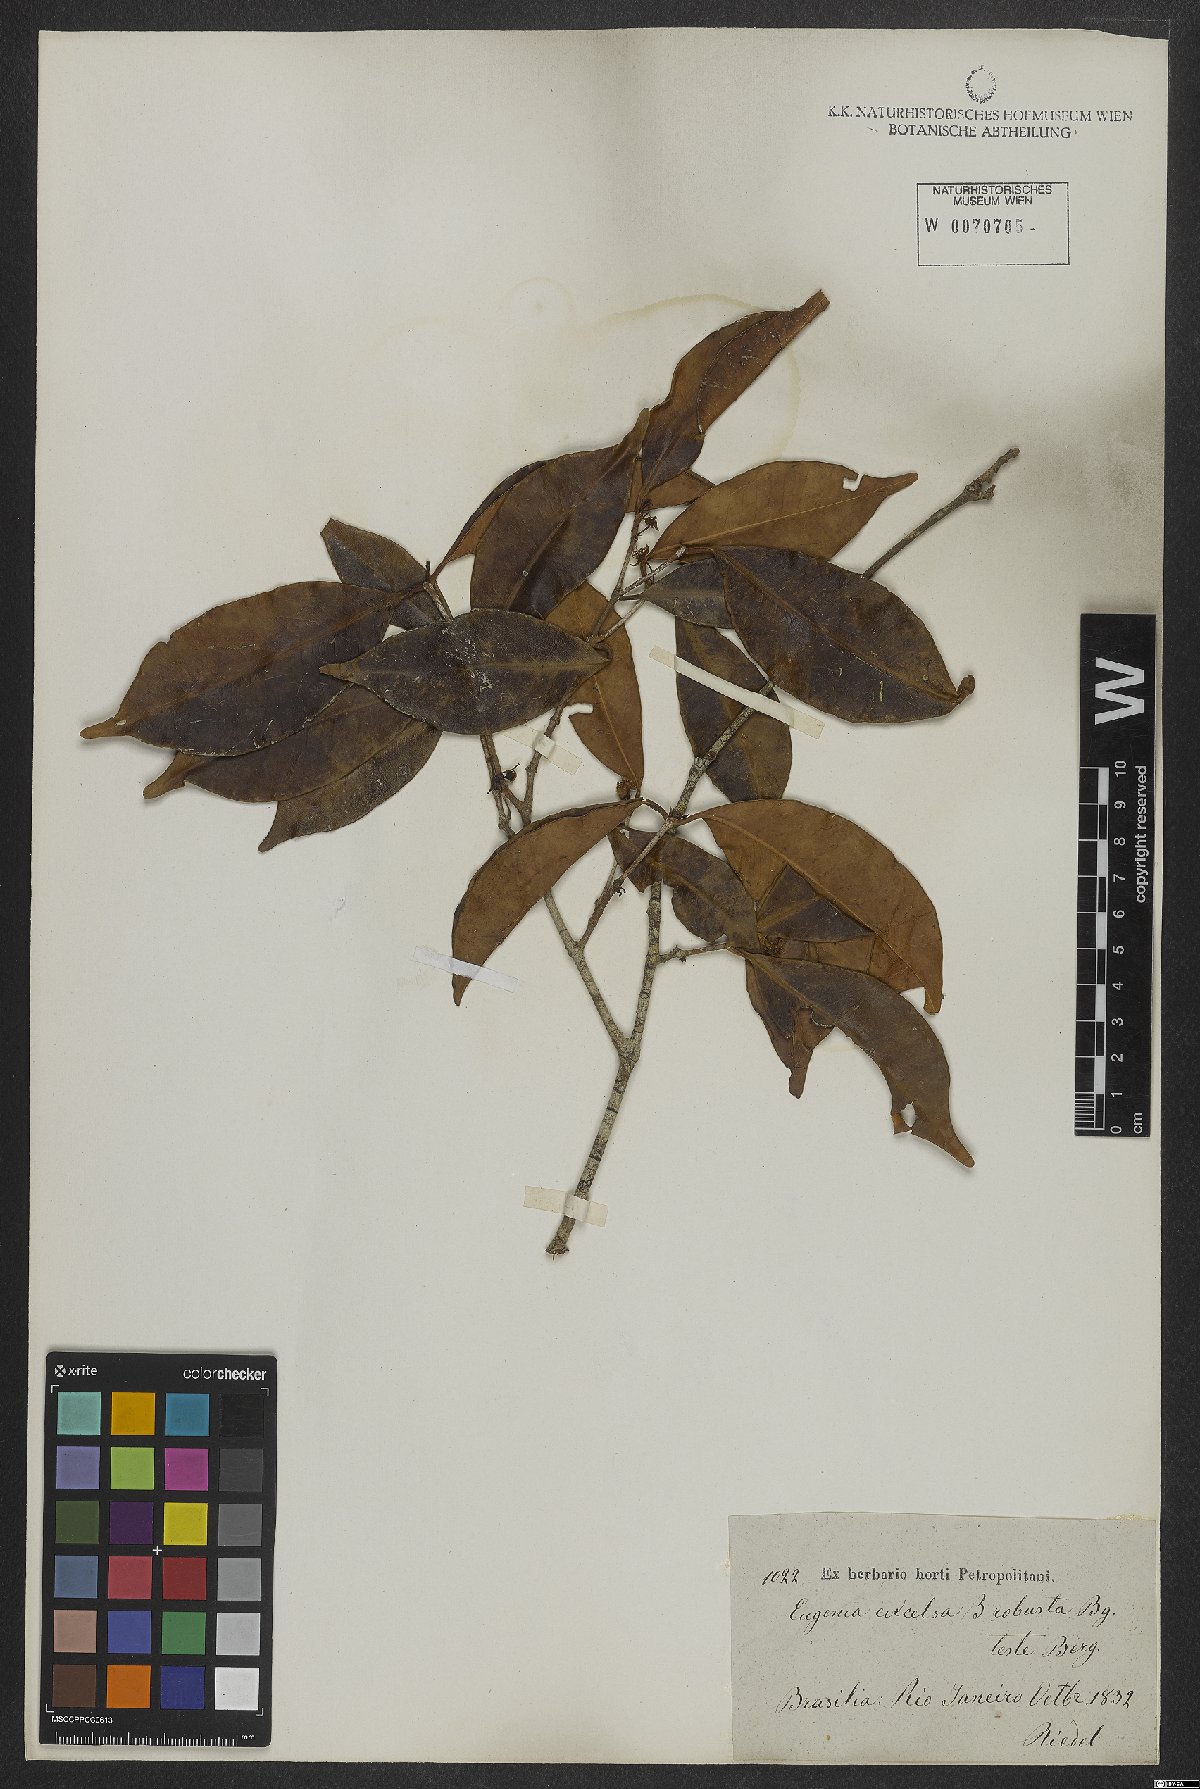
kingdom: Plantae
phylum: Tracheophyta
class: Magnoliopsida
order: Myrtales
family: Myrtaceae
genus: Eugenia
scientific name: Eugenia excelsa
